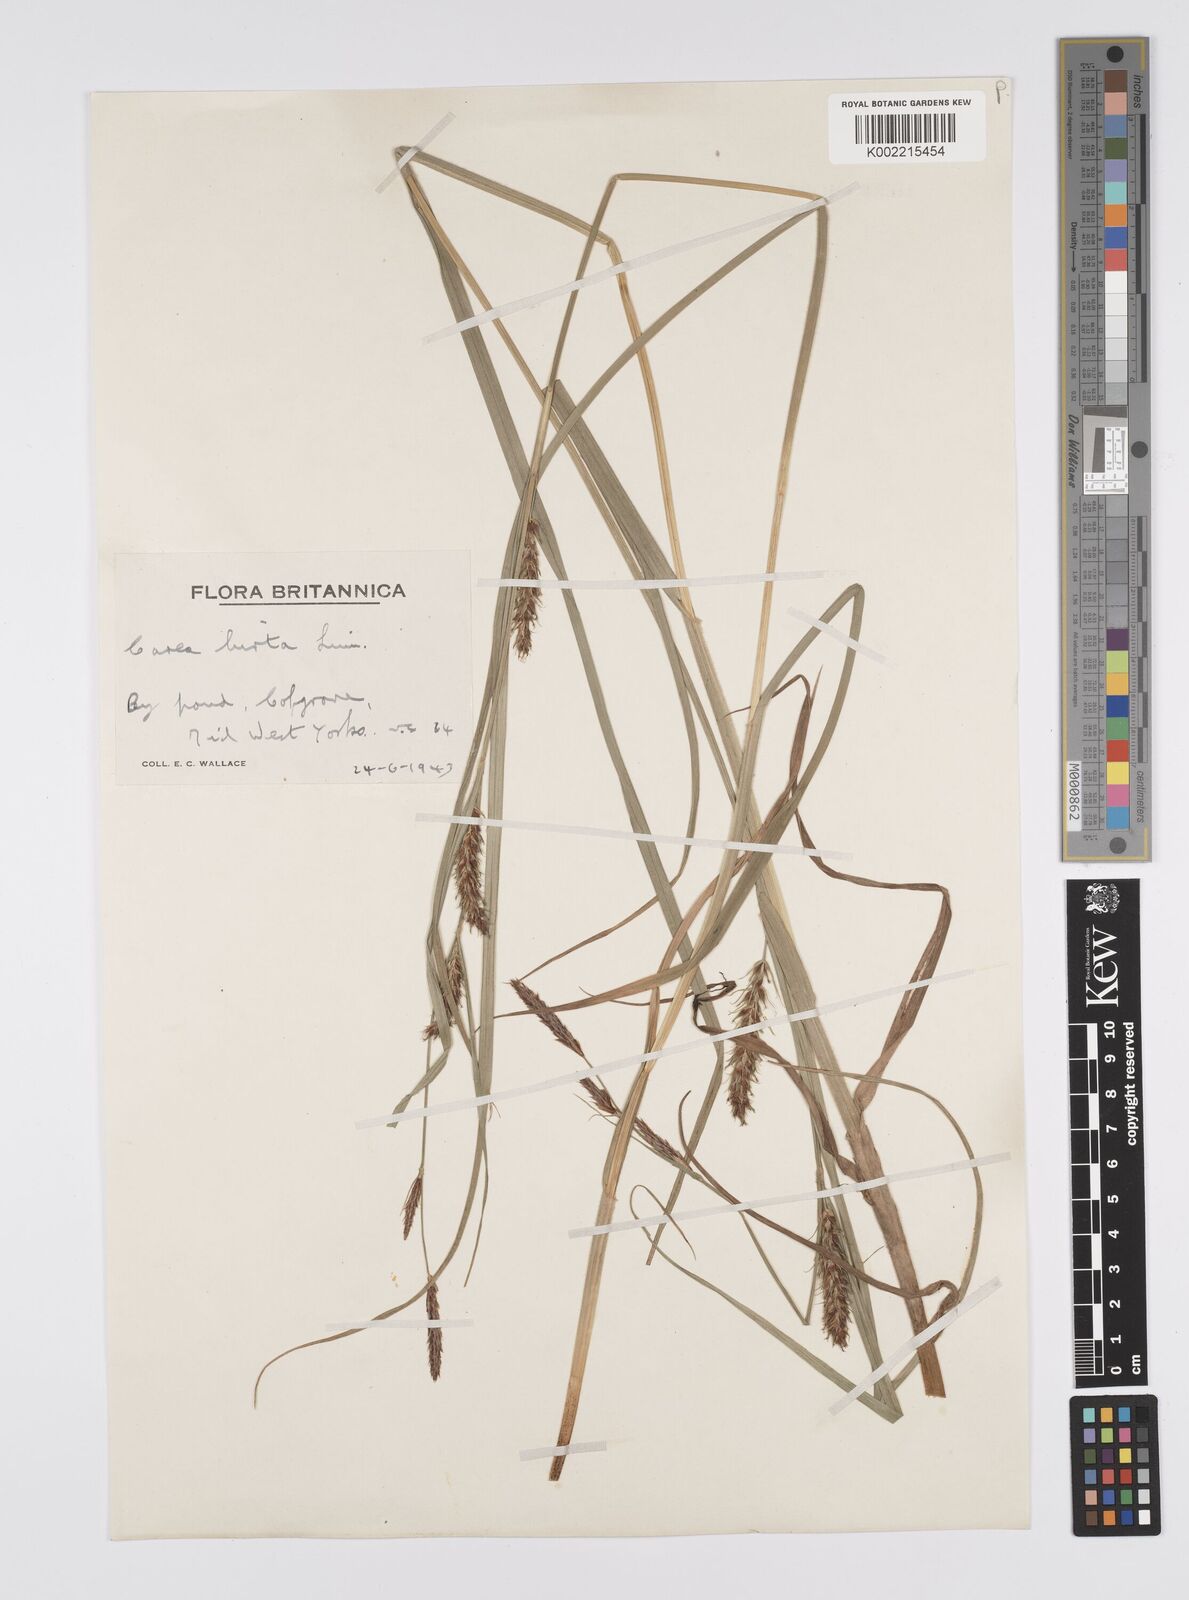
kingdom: Plantae
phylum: Tracheophyta
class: Liliopsida
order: Poales
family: Cyperaceae
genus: Carex
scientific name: Carex hirta
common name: Hairy sedge
